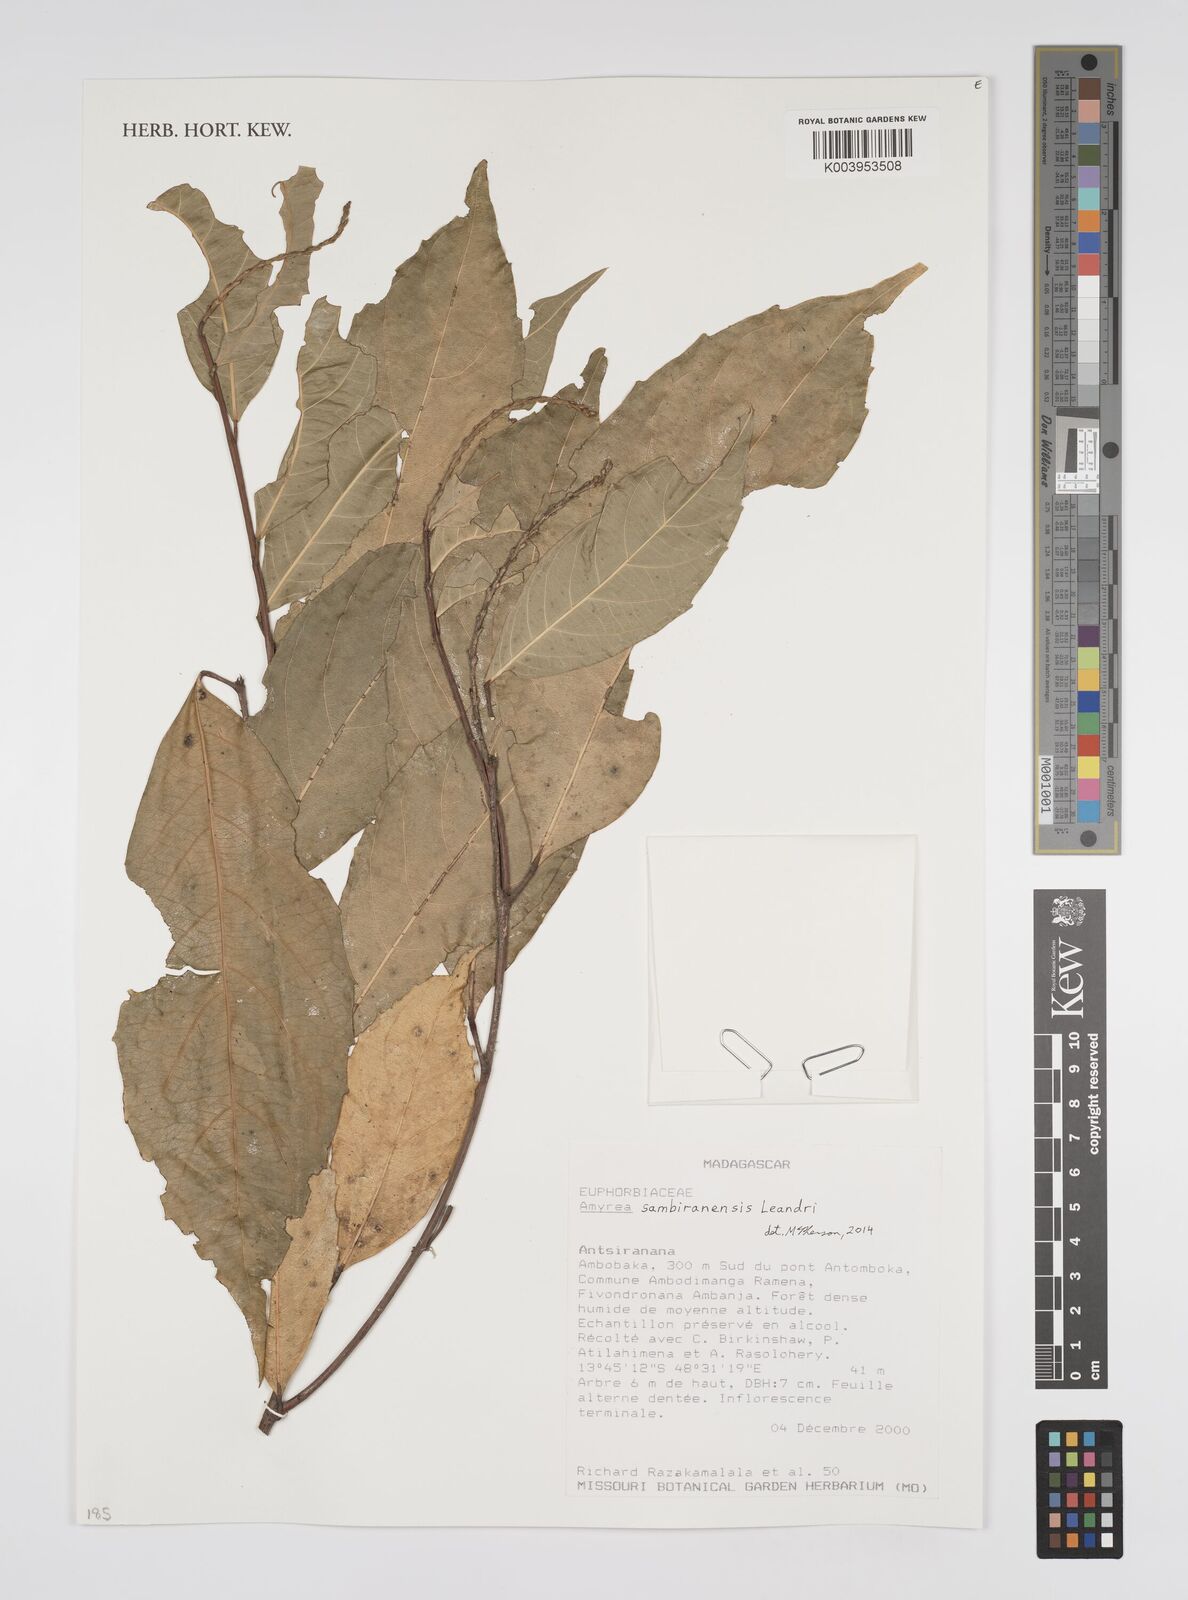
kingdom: Plantae
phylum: Tracheophyta
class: Magnoliopsida
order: Malpighiales
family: Euphorbiaceae
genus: Amyrea
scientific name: Amyrea sambiranensis
